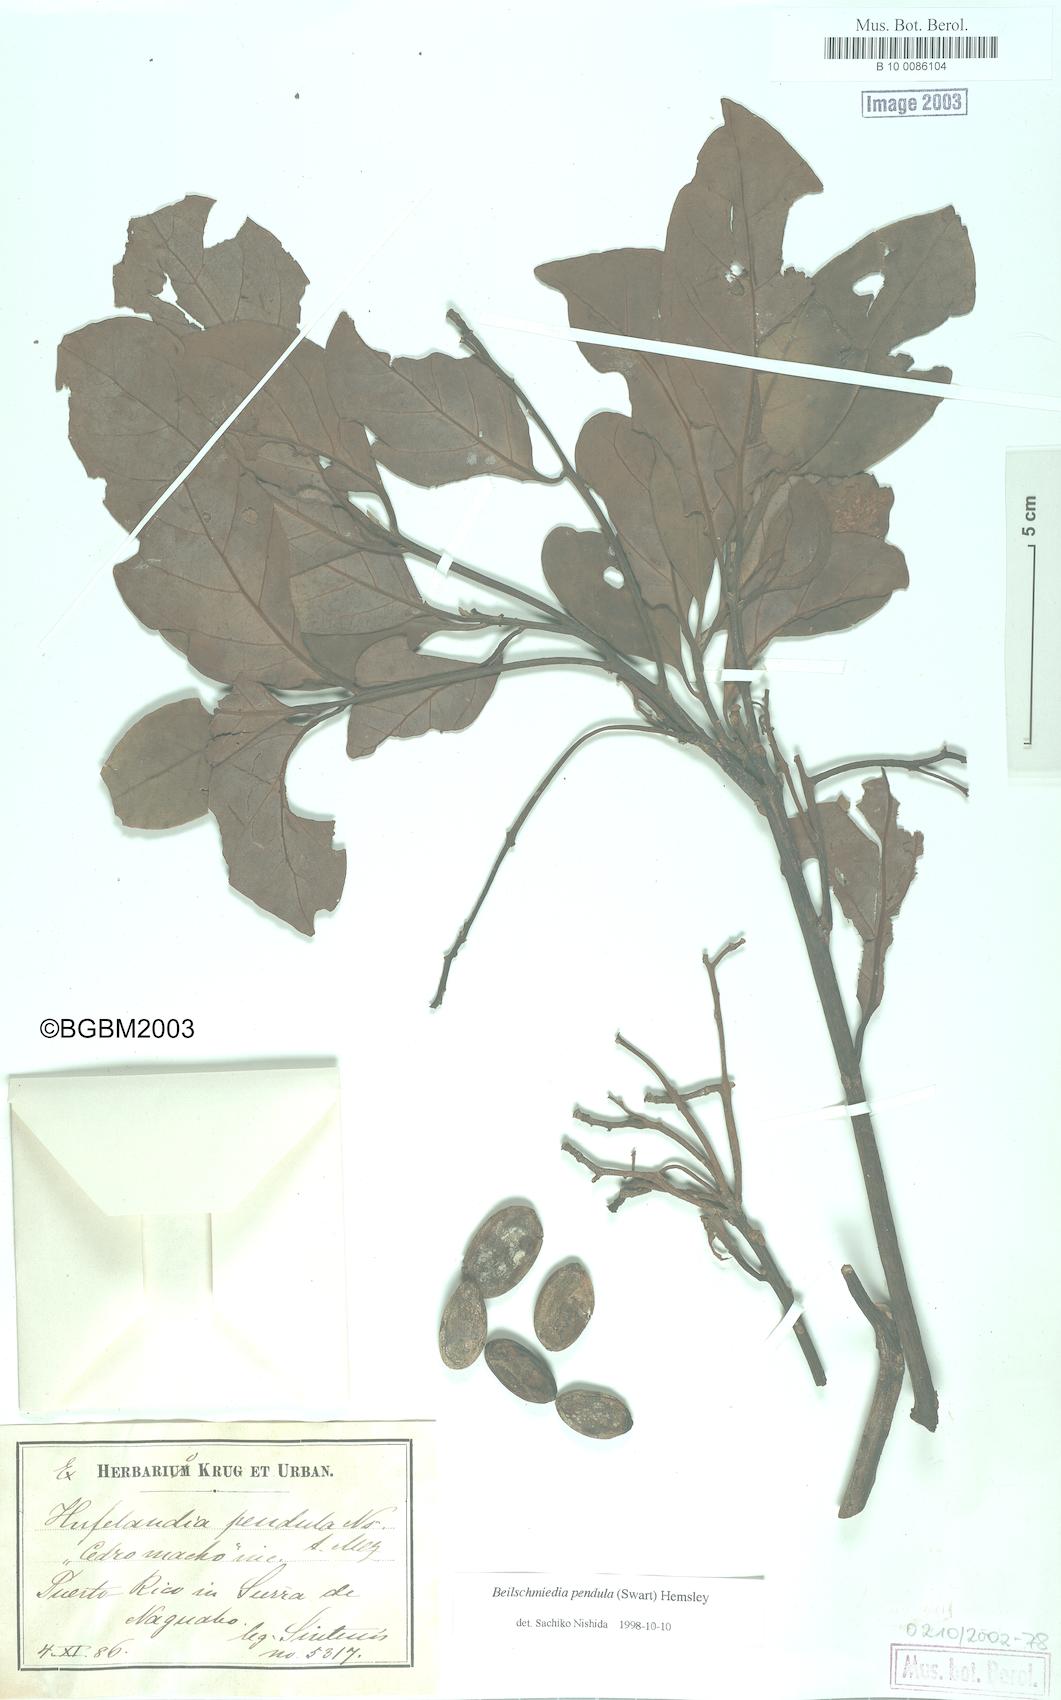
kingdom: Plantae
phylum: Tracheophyta
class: Magnoliopsida
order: Laurales
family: Lauraceae
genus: Beilschmiedia
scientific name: Beilschmiedia pendula
